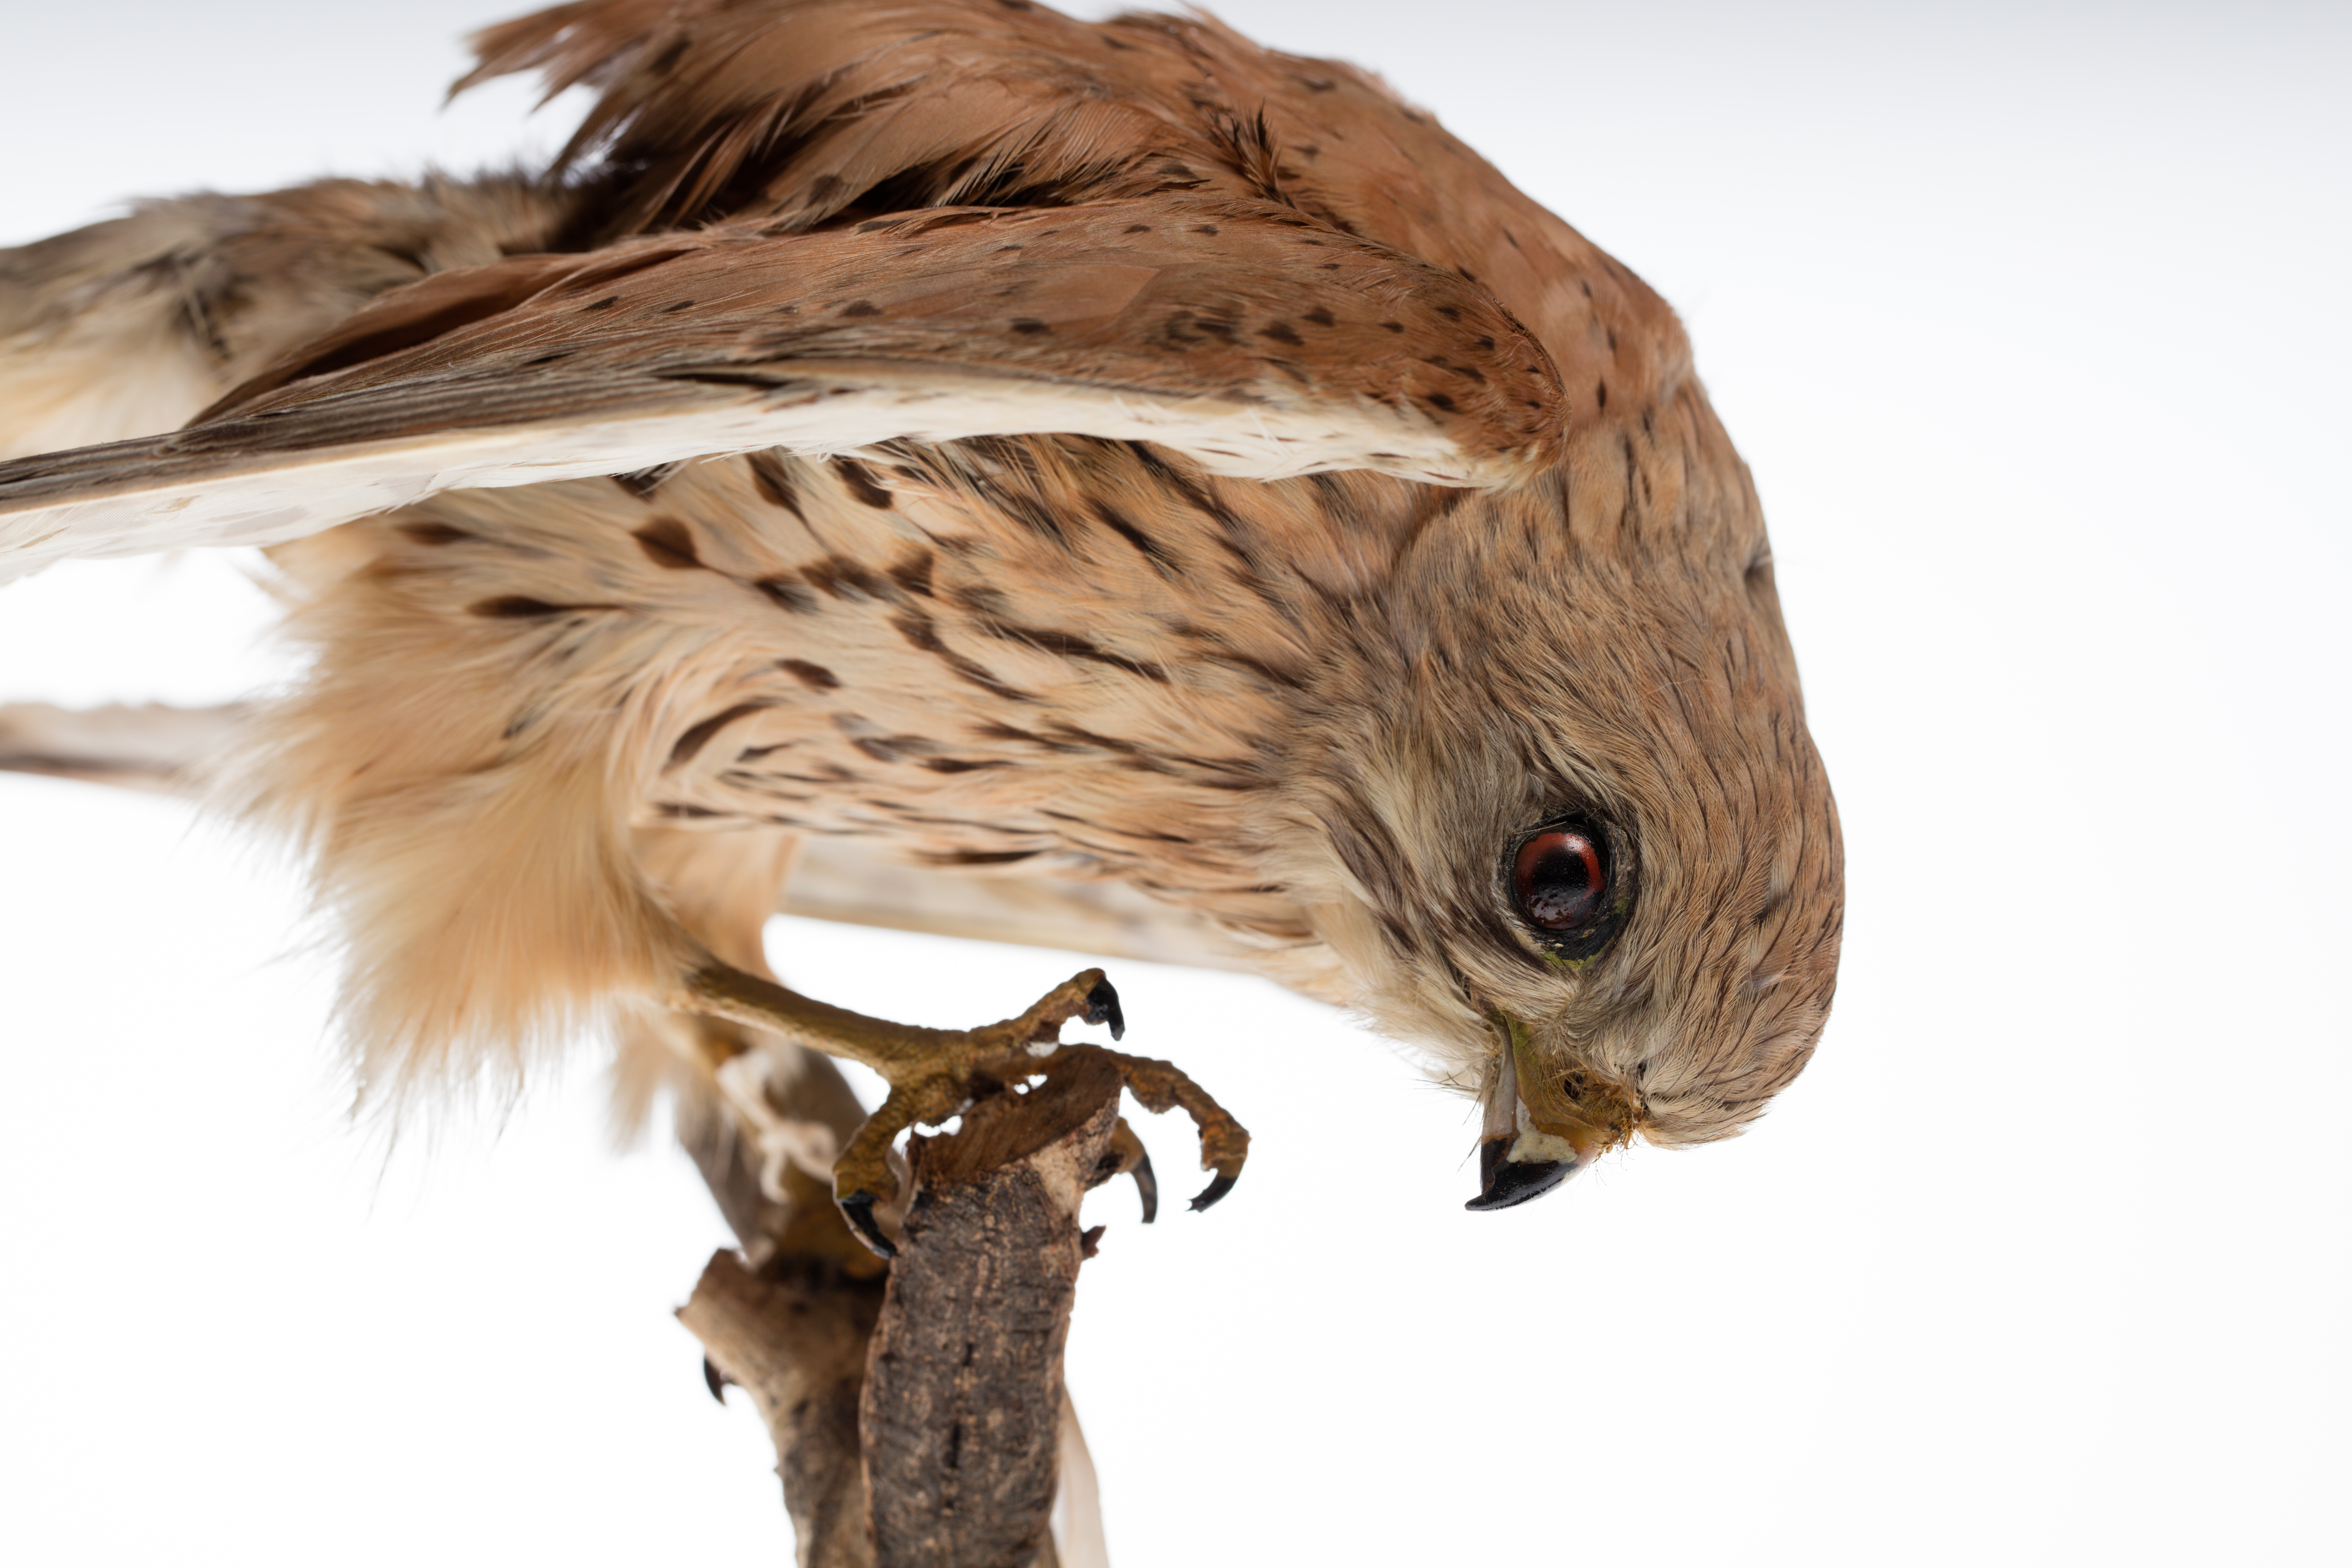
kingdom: Animalia
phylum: Chordata
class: Aves
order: Falconiformes
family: Falconidae
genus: Falco
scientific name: Falco tinnunculus
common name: Common kestrel
